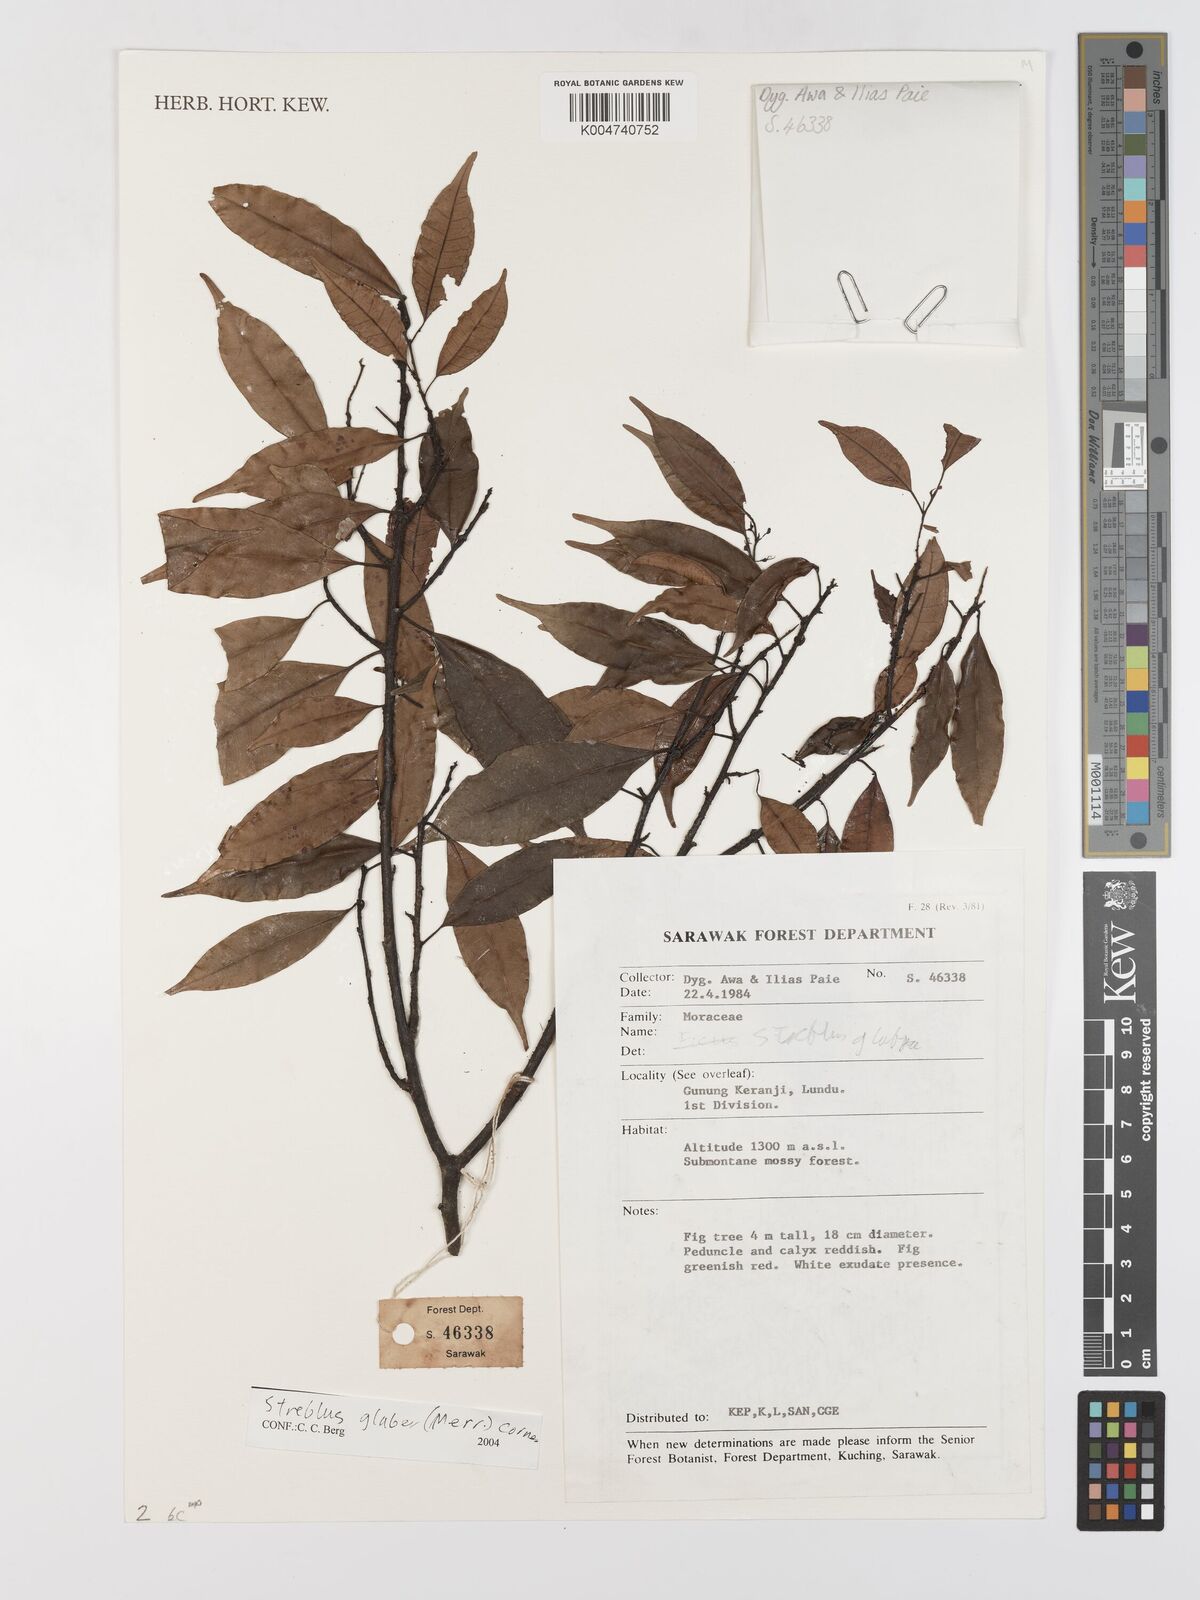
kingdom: Plantae
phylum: Tracheophyta
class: Magnoliopsida
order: Rosales
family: Moraceae
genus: Paratrophis
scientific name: Paratrophis glabra
